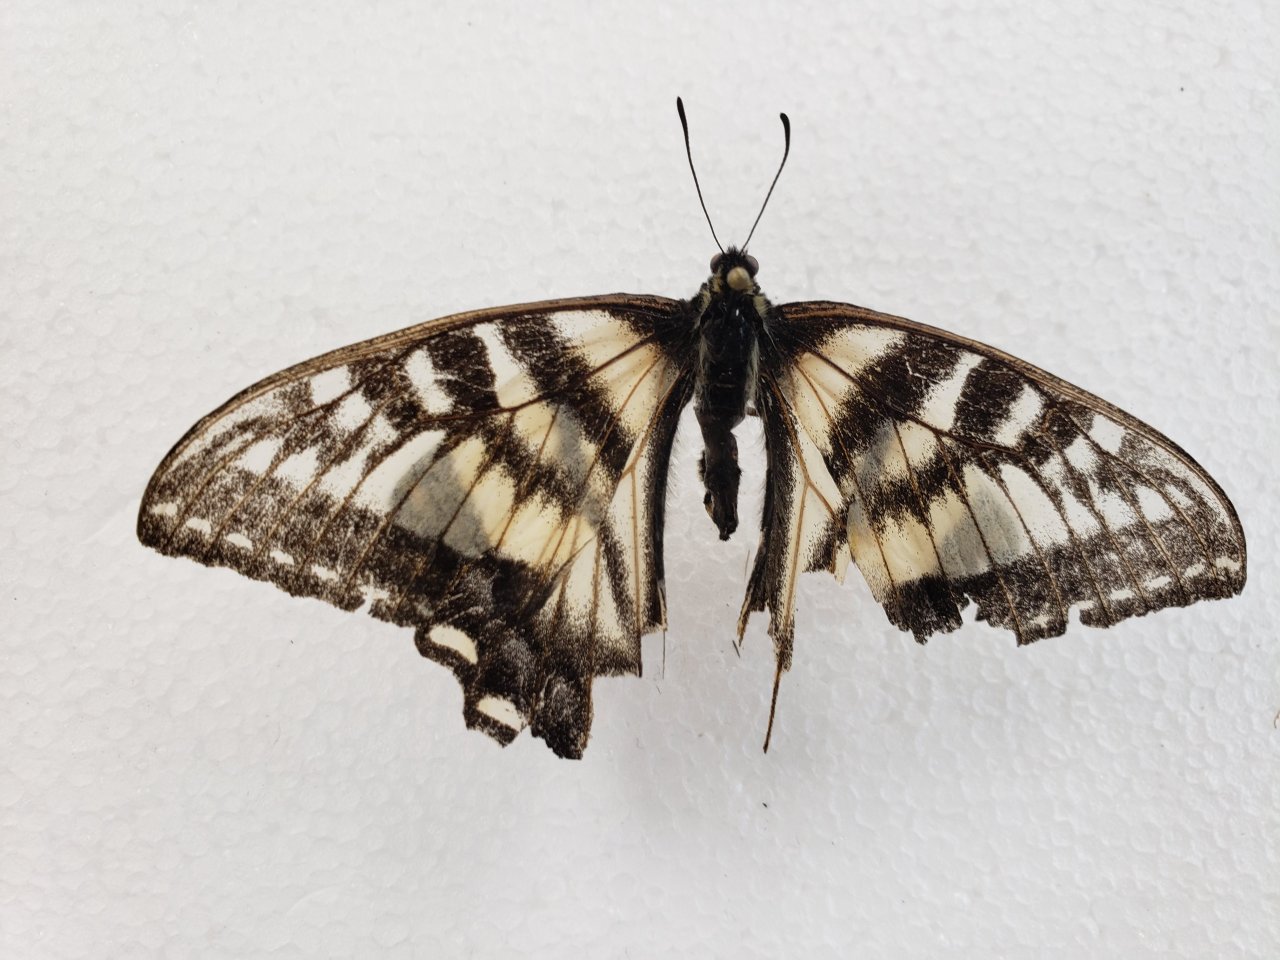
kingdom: Animalia
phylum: Arthropoda
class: Insecta
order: Lepidoptera
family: Papilionidae
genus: Pterourus
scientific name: Pterourus canadensis
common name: Canadian Tiger Swallowtail
